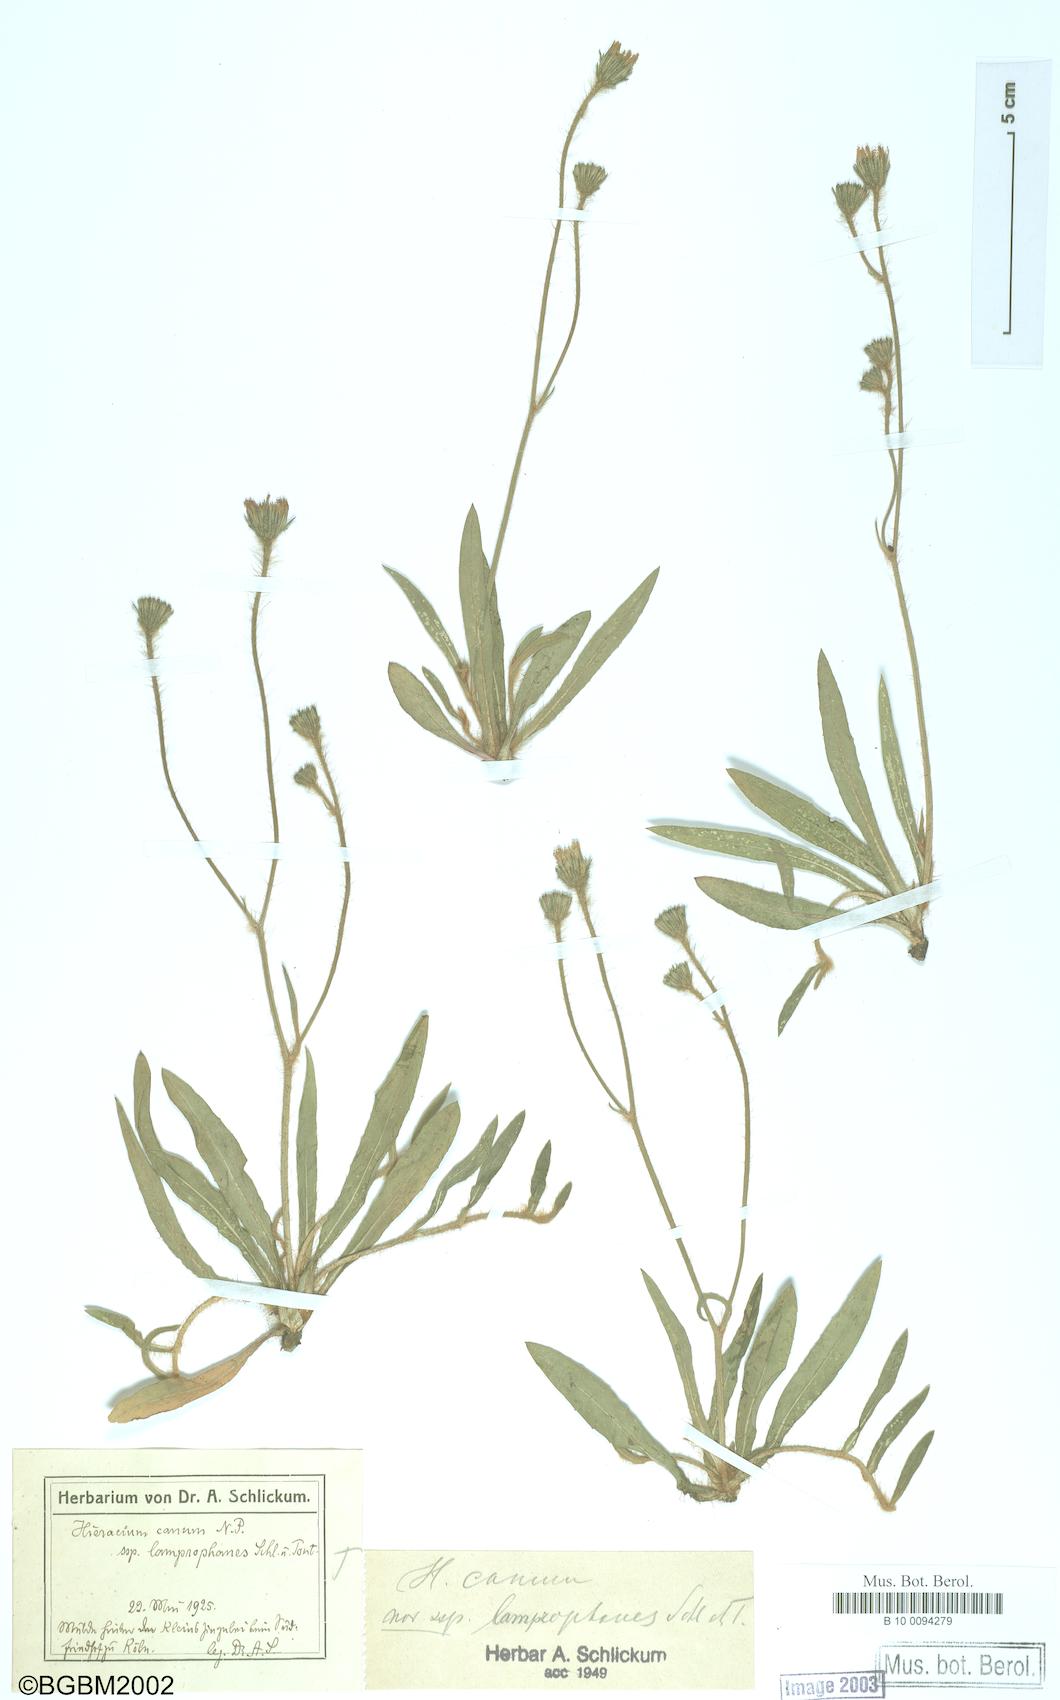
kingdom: Plantae
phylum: Tracheophyta
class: Magnoliopsida
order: Asterales
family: Asteraceae
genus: Pilosella
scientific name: Pilosella pilosellina
